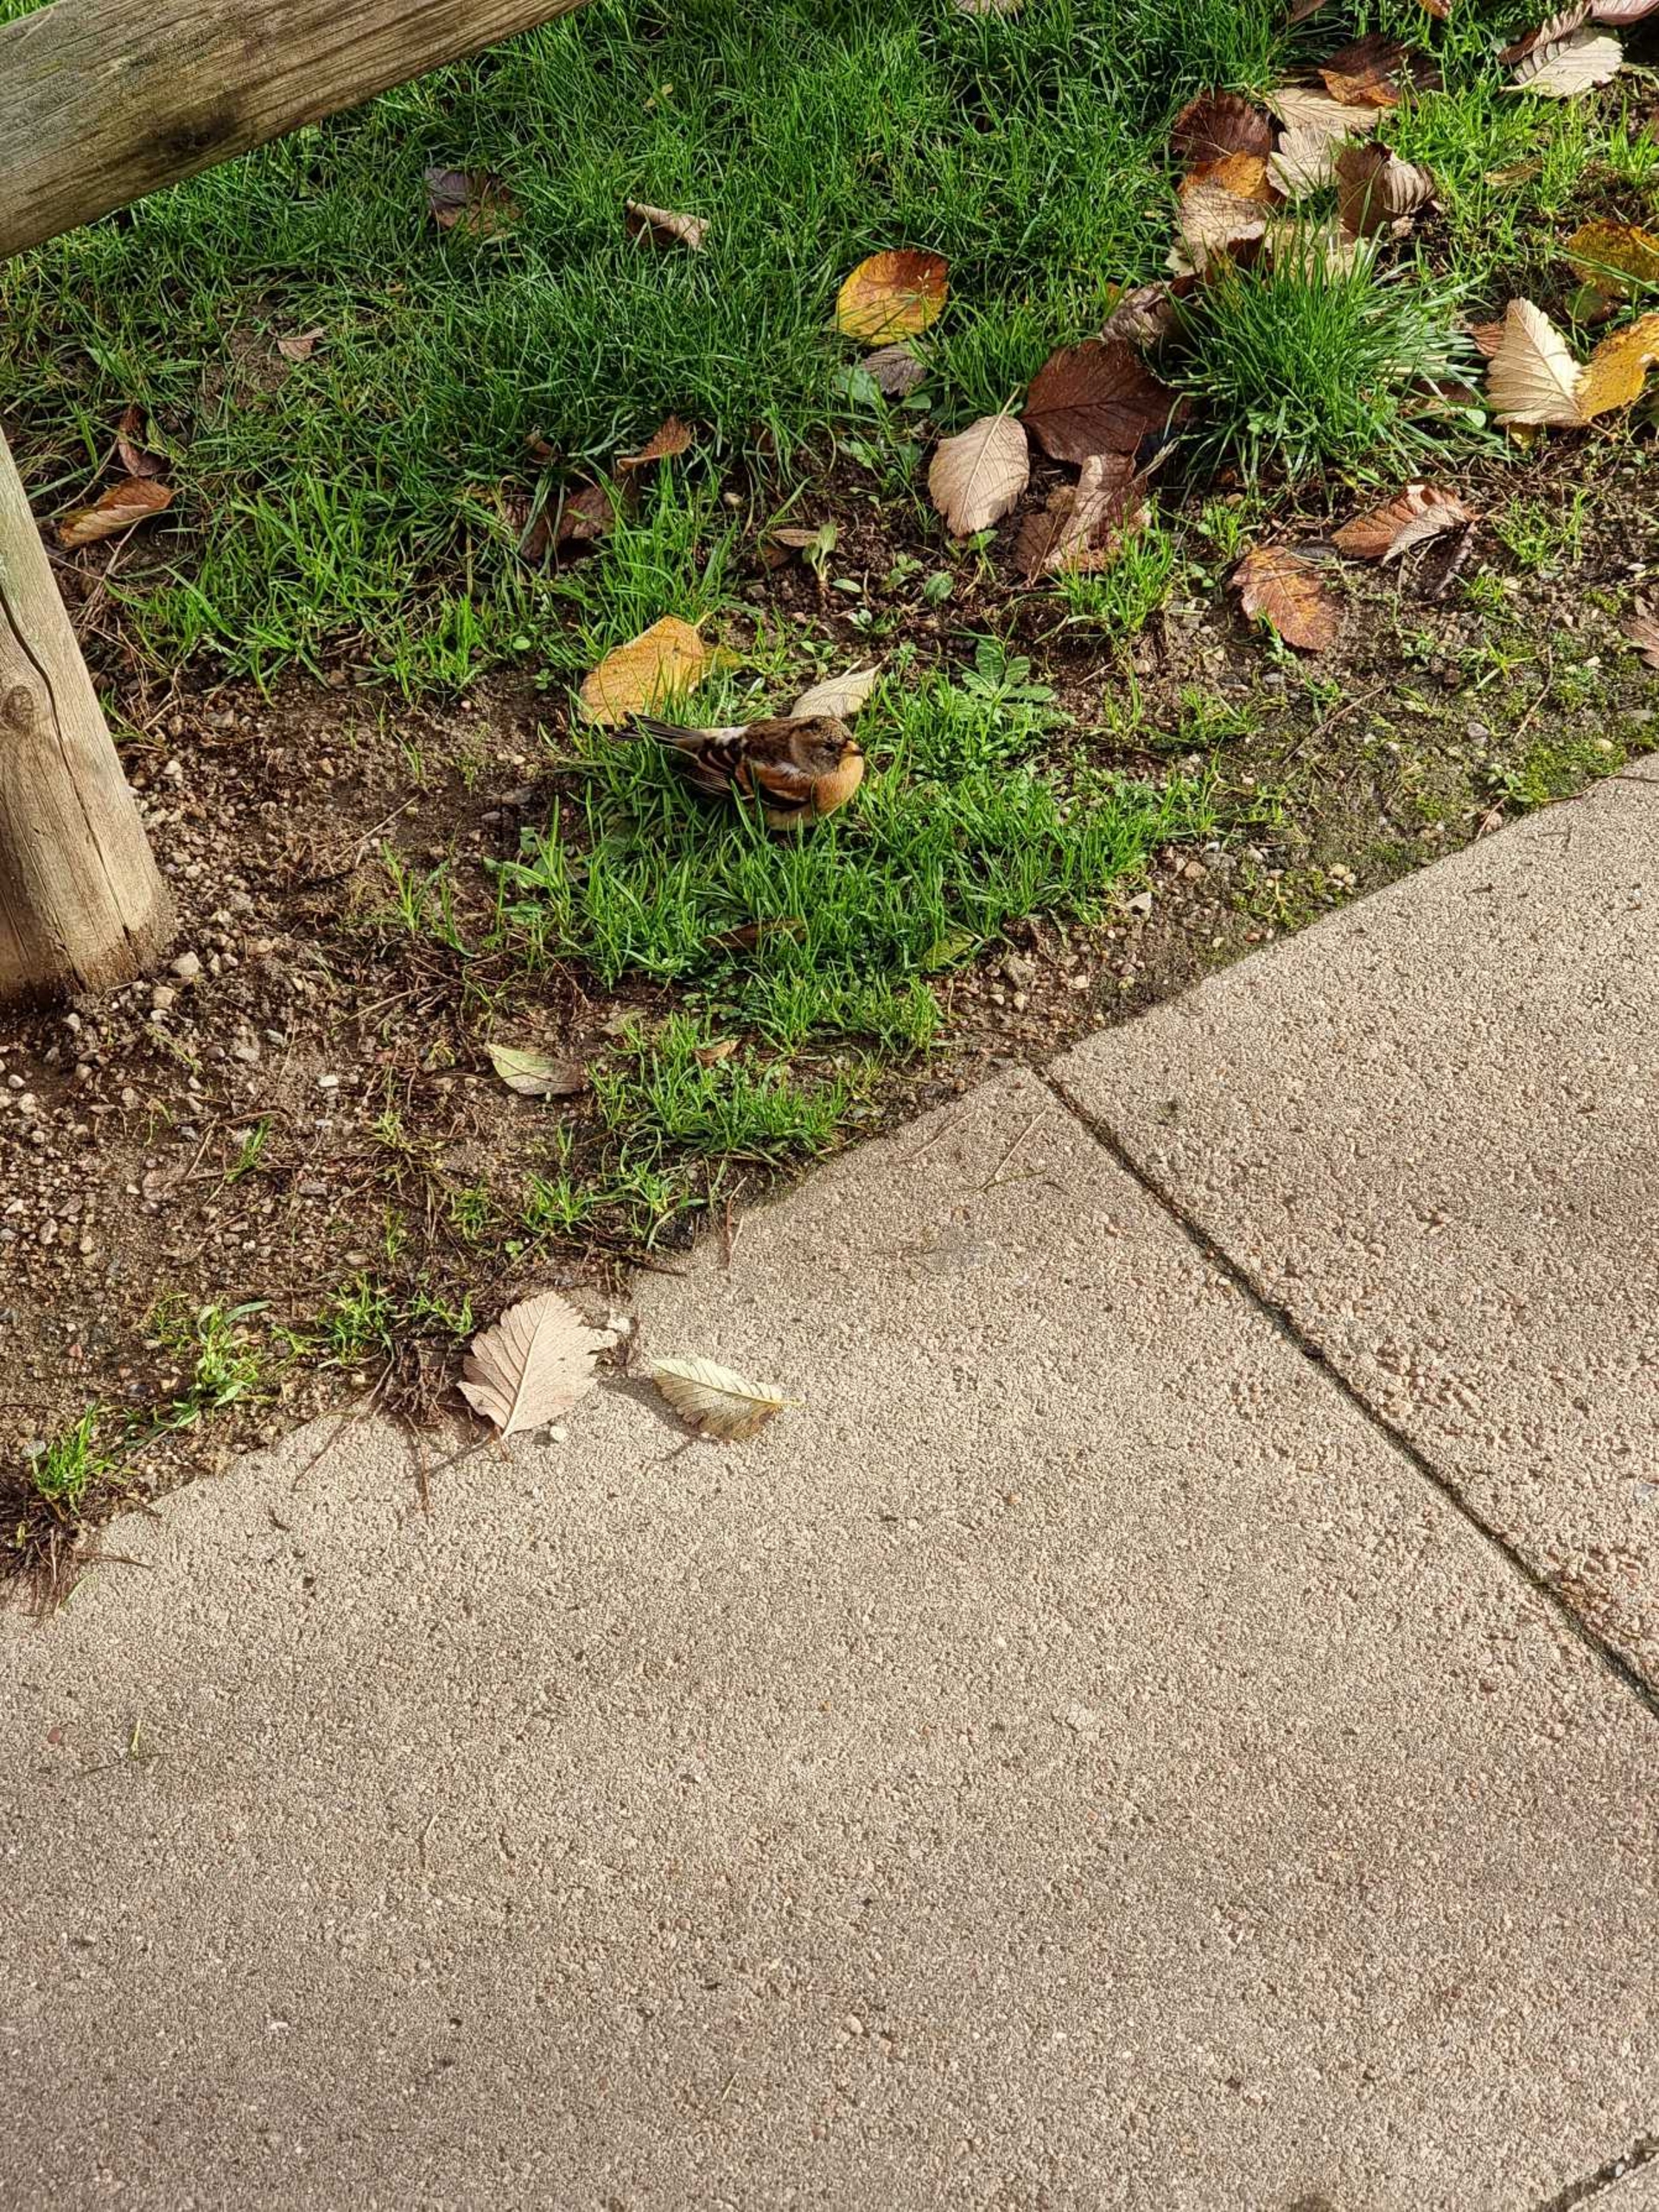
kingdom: Animalia
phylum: Chordata
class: Aves
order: Passeriformes
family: Fringillidae
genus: Fringilla
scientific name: Fringilla montifringilla
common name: Kvækerfinke
